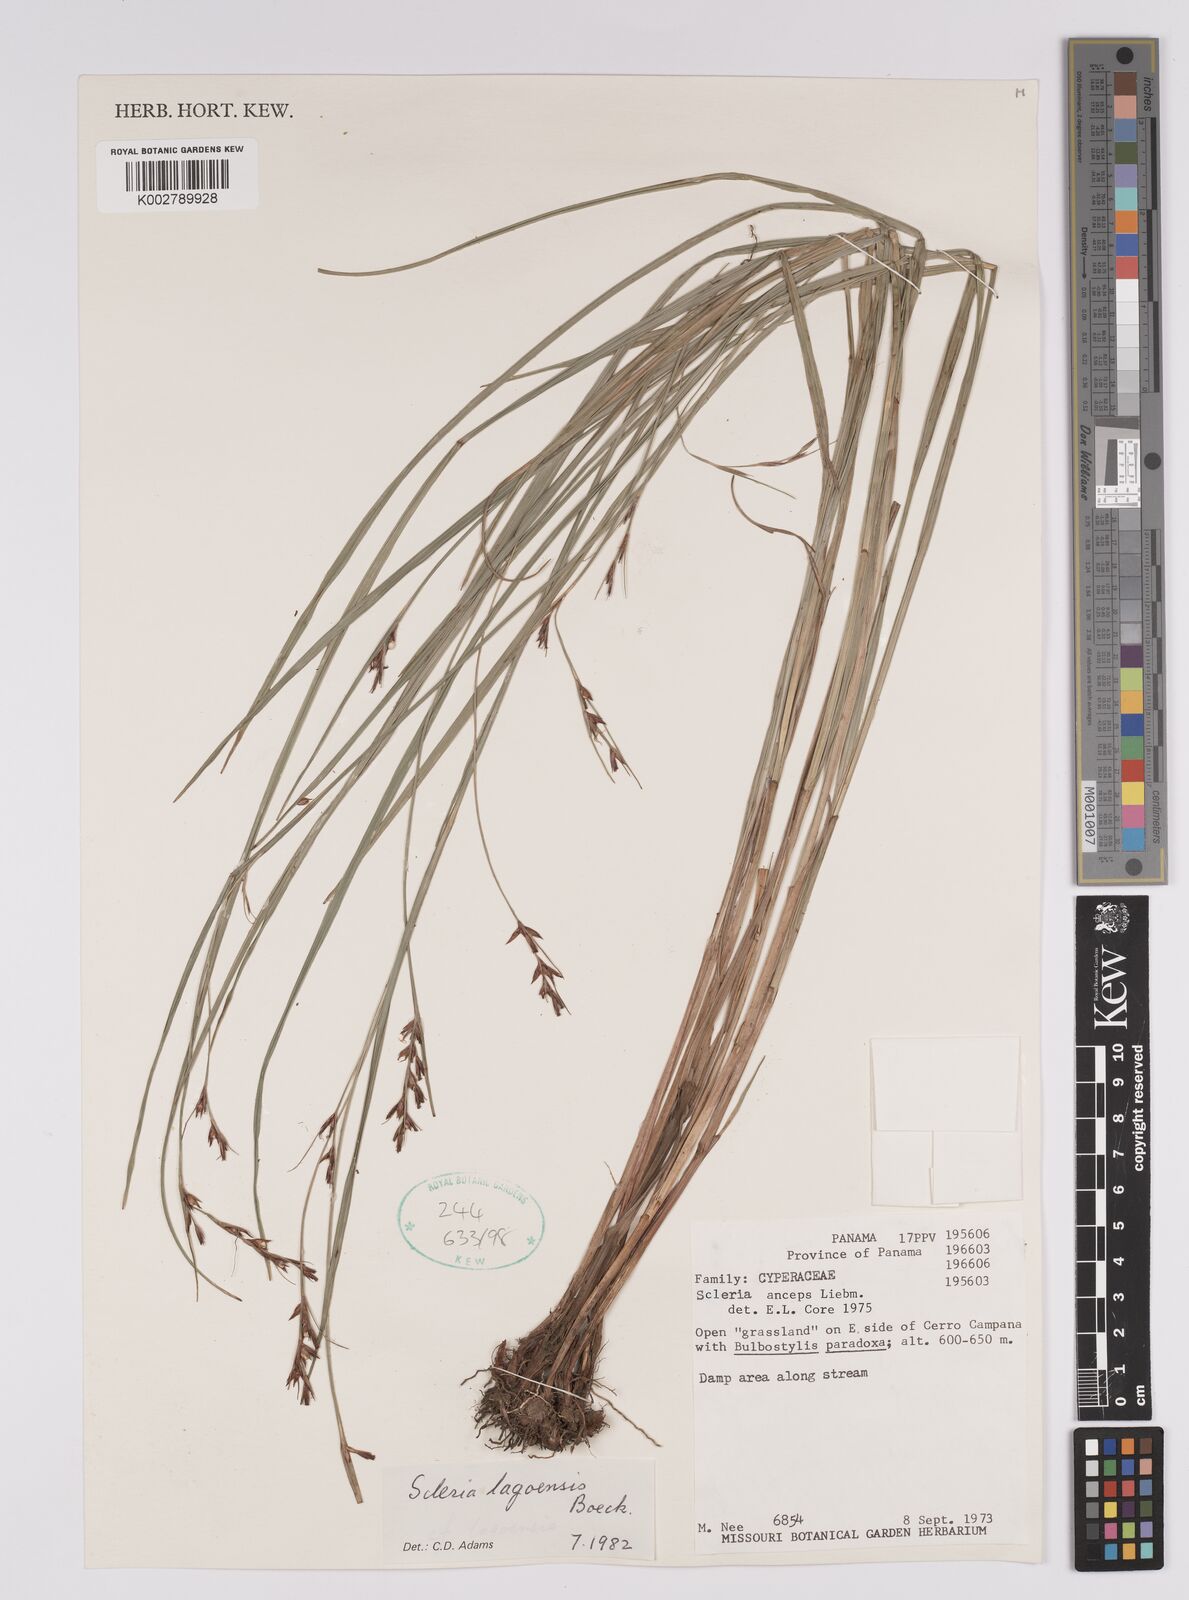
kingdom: Plantae
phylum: Tracheophyta
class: Liliopsida
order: Poales
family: Cyperaceae
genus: Scleria
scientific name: Scleria lagoensis
